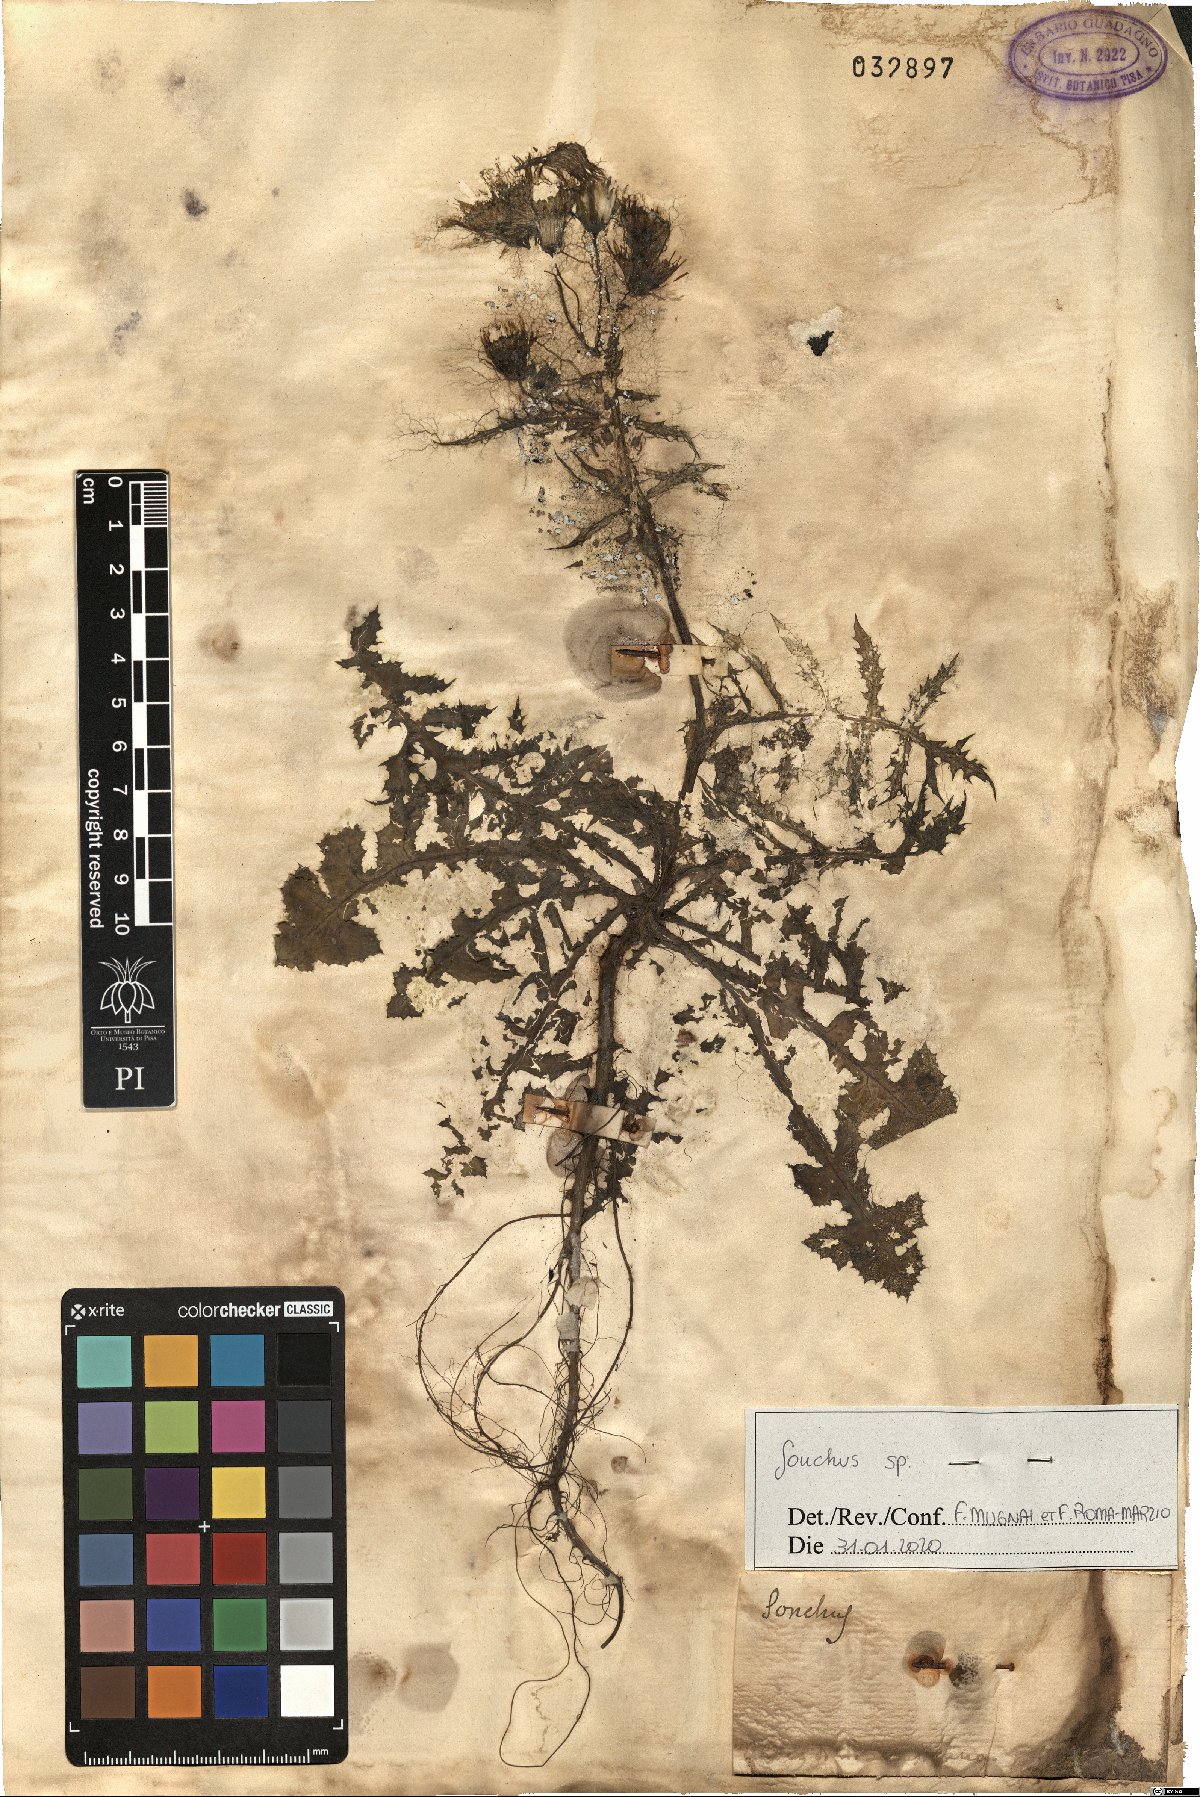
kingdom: Plantae
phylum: Tracheophyta
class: Magnoliopsida
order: Asterales
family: Asteraceae
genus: Sonchus
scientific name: Sonchus
